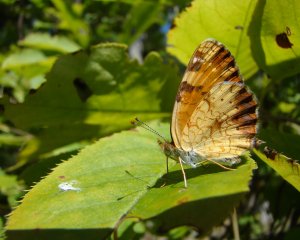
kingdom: Animalia
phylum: Arthropoda
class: Insecta
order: Lepidoptera
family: Nymphalidae
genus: Phyciodes
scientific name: Phyciodes tharos
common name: Northern Crescent
